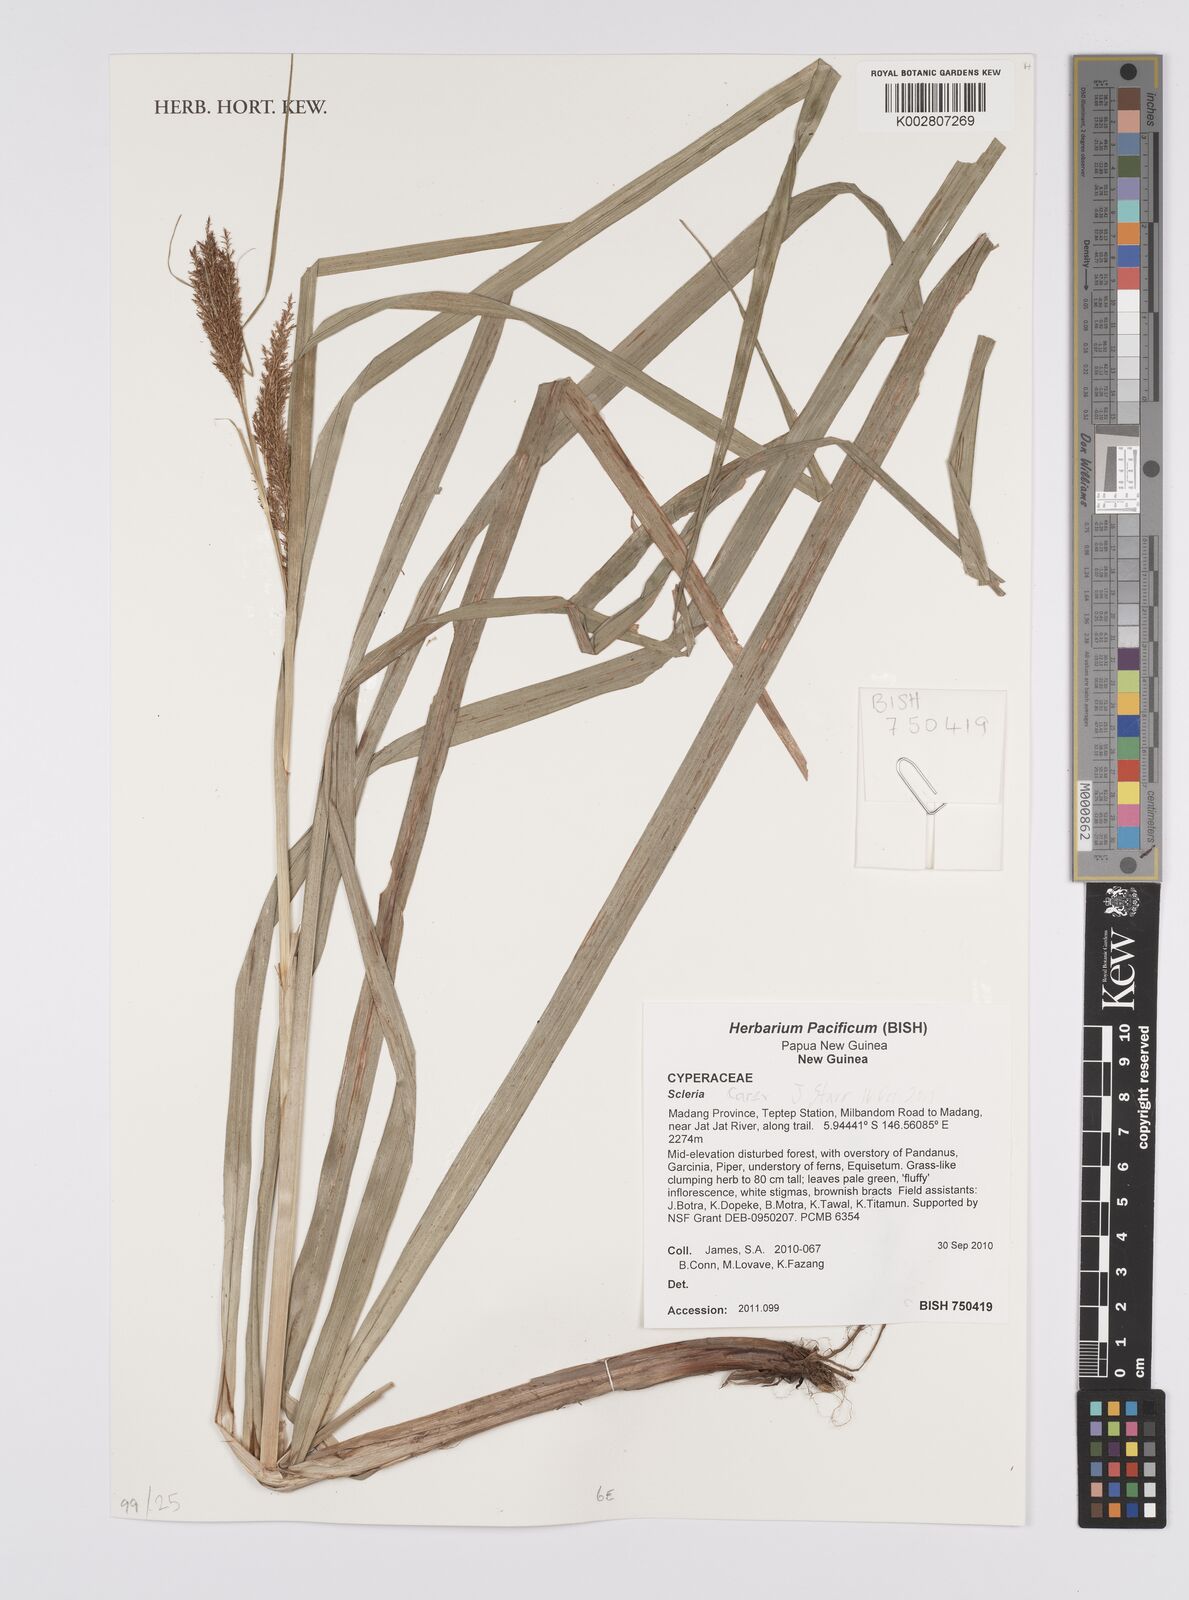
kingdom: Plantae
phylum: Tracheophyta
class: Liliopsida
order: Poales
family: Cyperaceae
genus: Carex
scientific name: Carex
